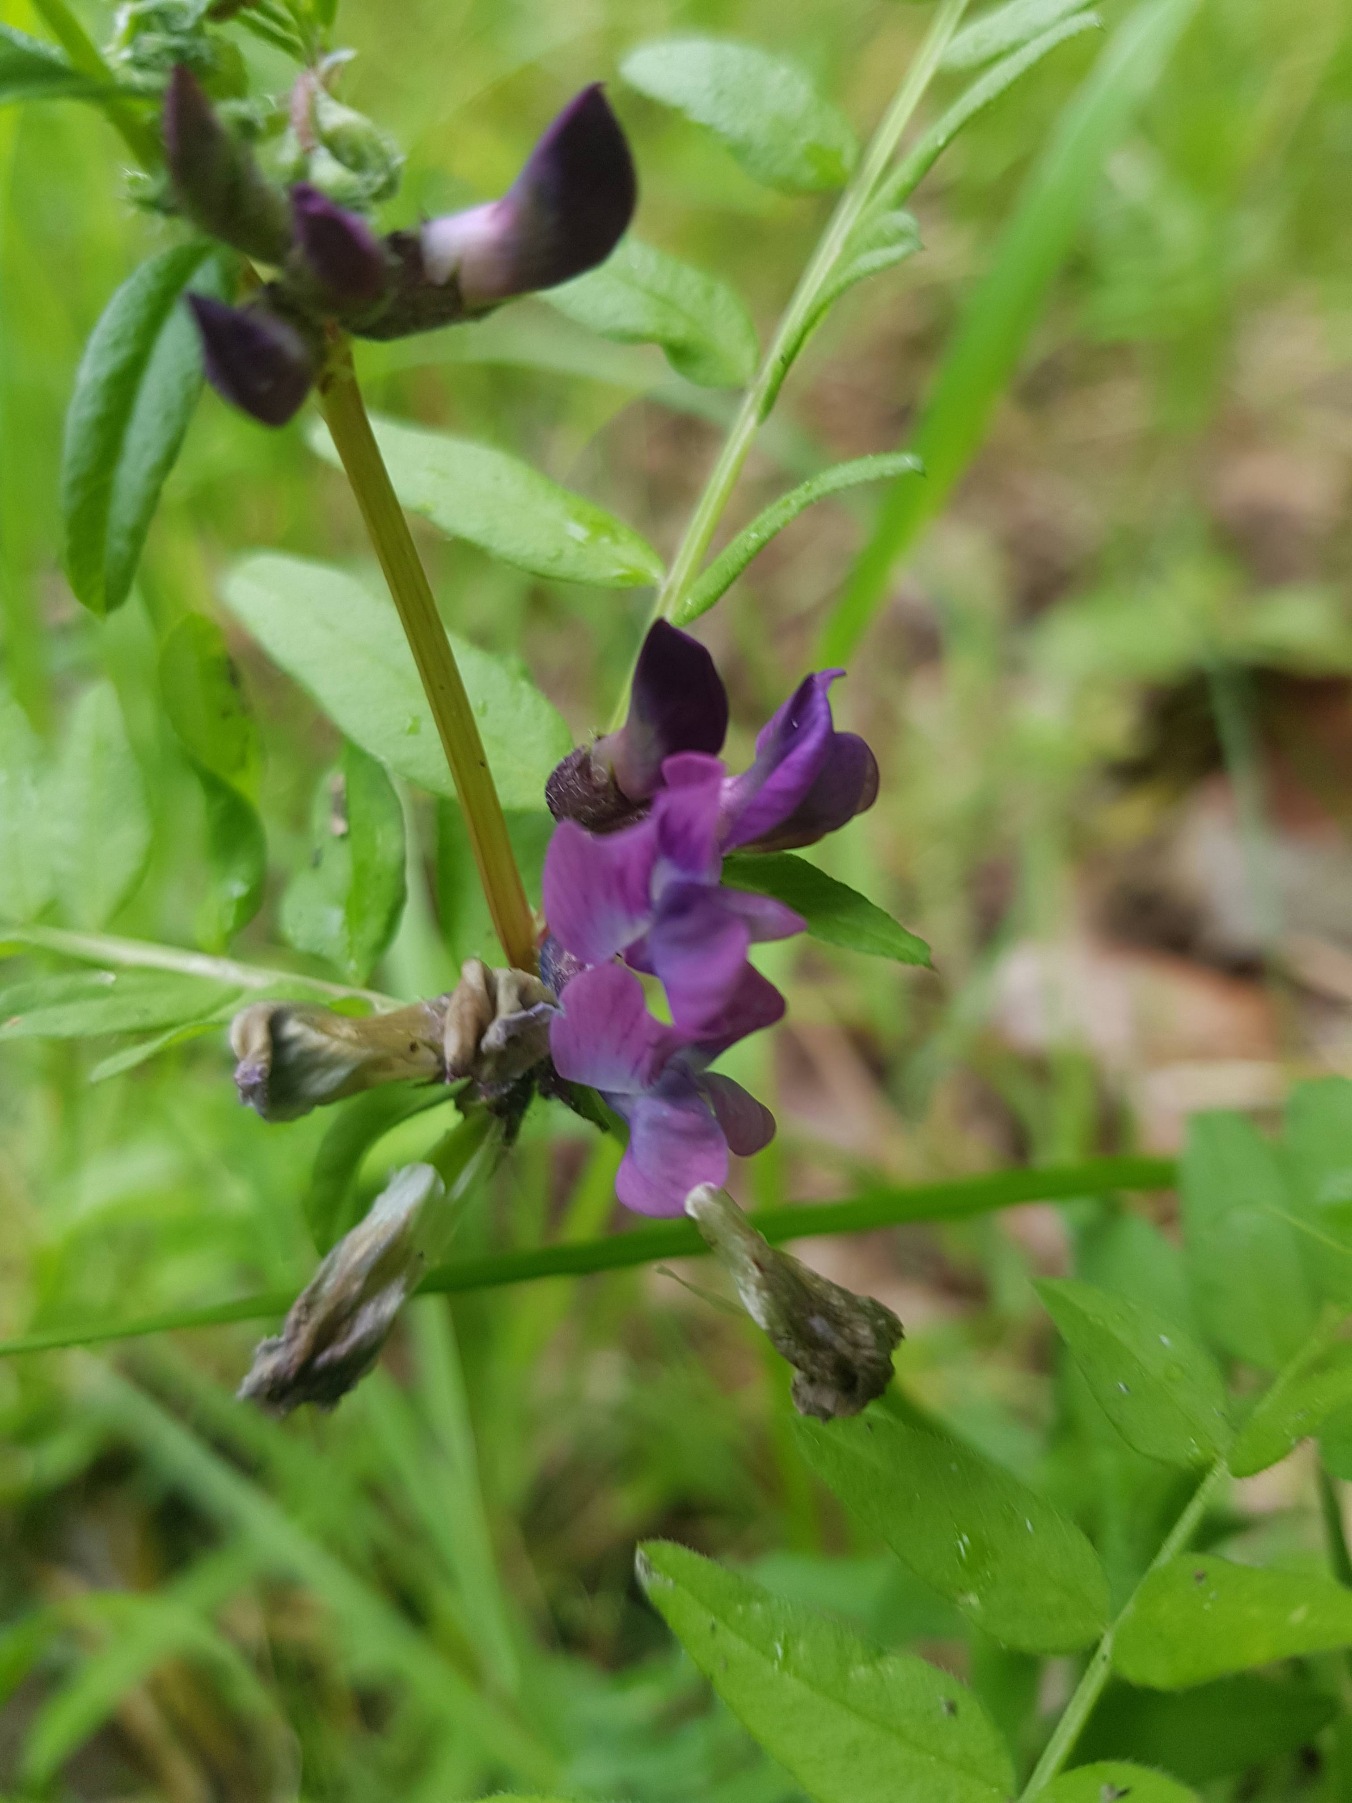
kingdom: Plantae
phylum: Tracheophyta
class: Magnoliopsida
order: Fabales
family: Fabaceae
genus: Vicia
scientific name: Vicia sepium
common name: Gærde-vikke
